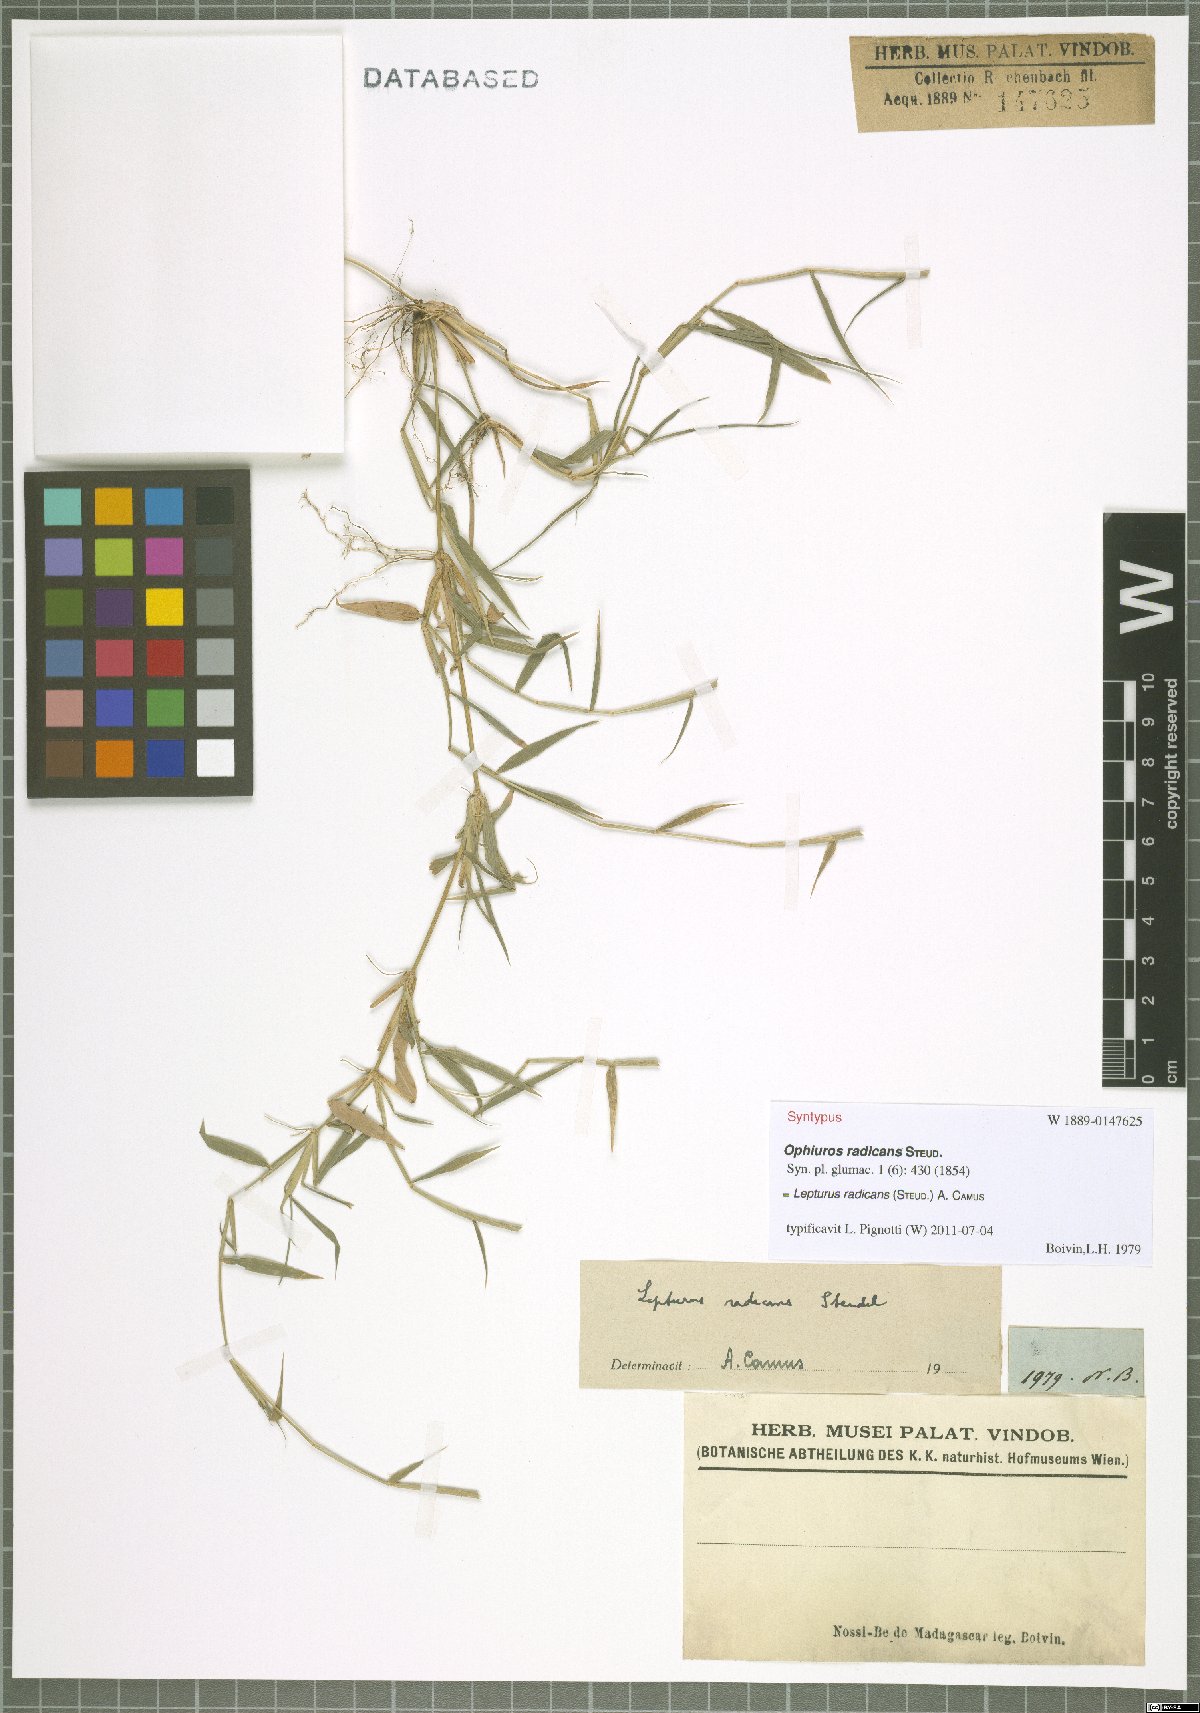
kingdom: Plantae
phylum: Tracheophyta
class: Liliopsida
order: Poales
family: Poaceae
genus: Lepturus
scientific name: Lepturus radicans
